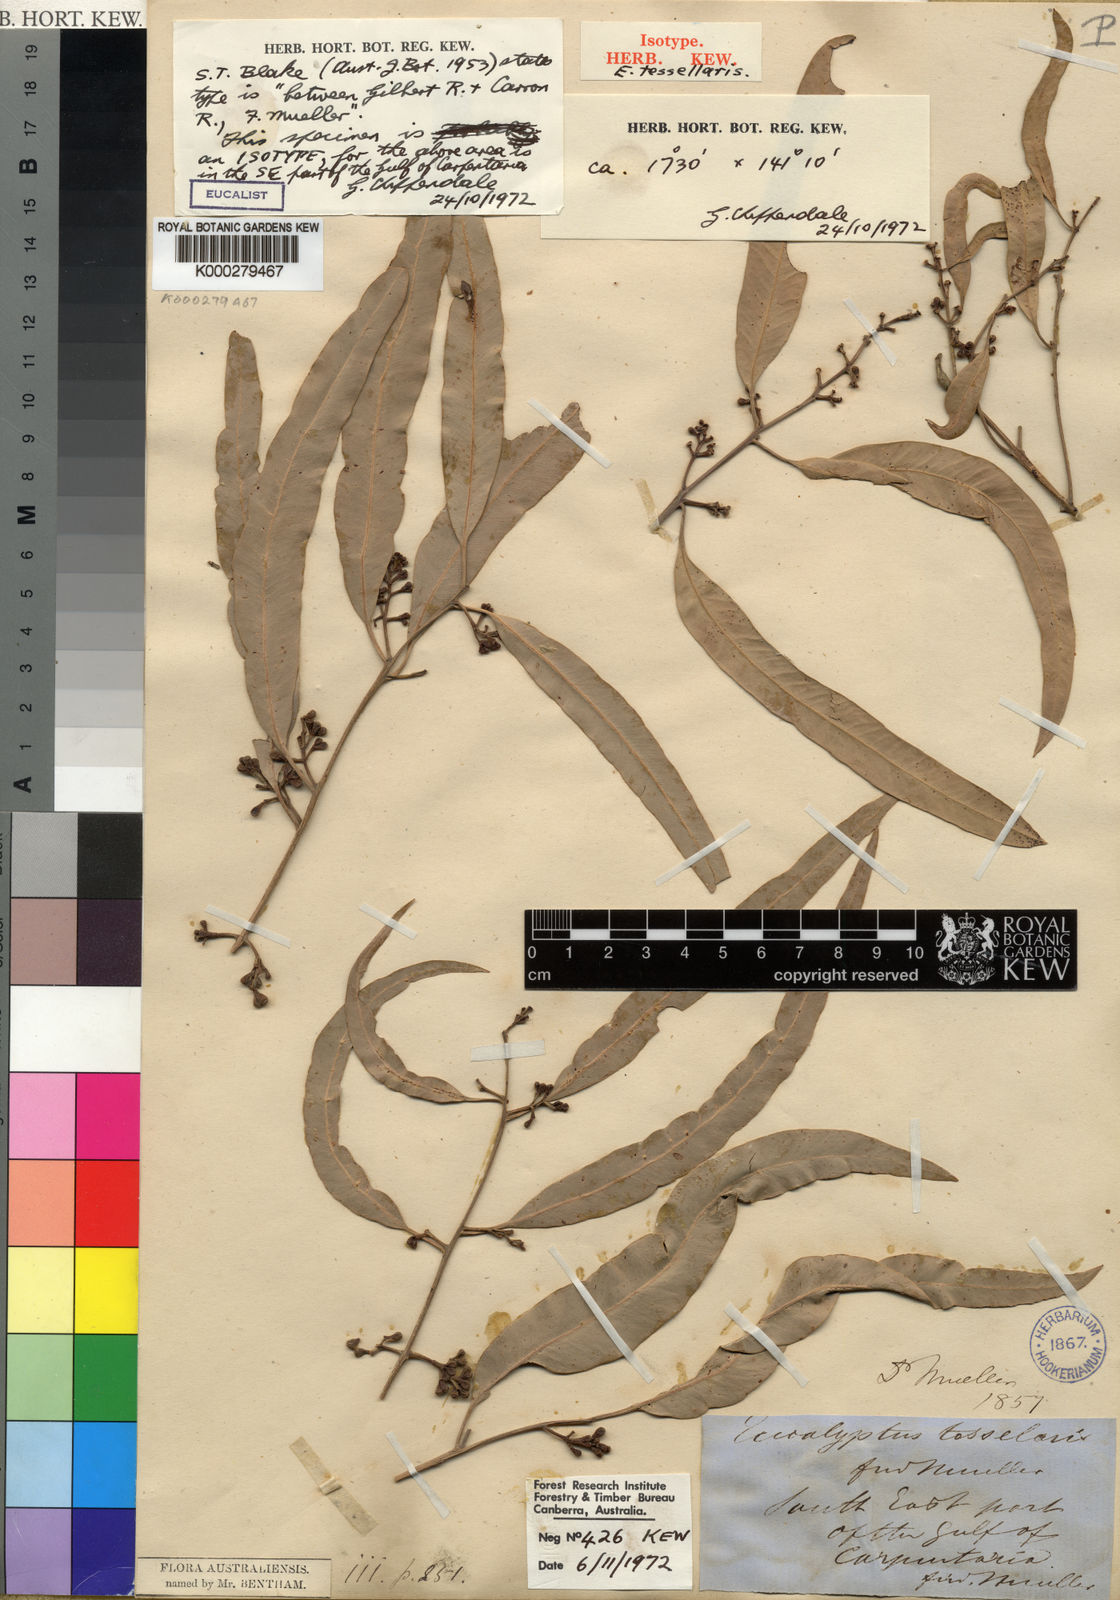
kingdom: Plantae
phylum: Tracheophyta
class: Magnoliopsida
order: Myrtales
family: Myrtaceae
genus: Corymbia
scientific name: Corymbia bella
